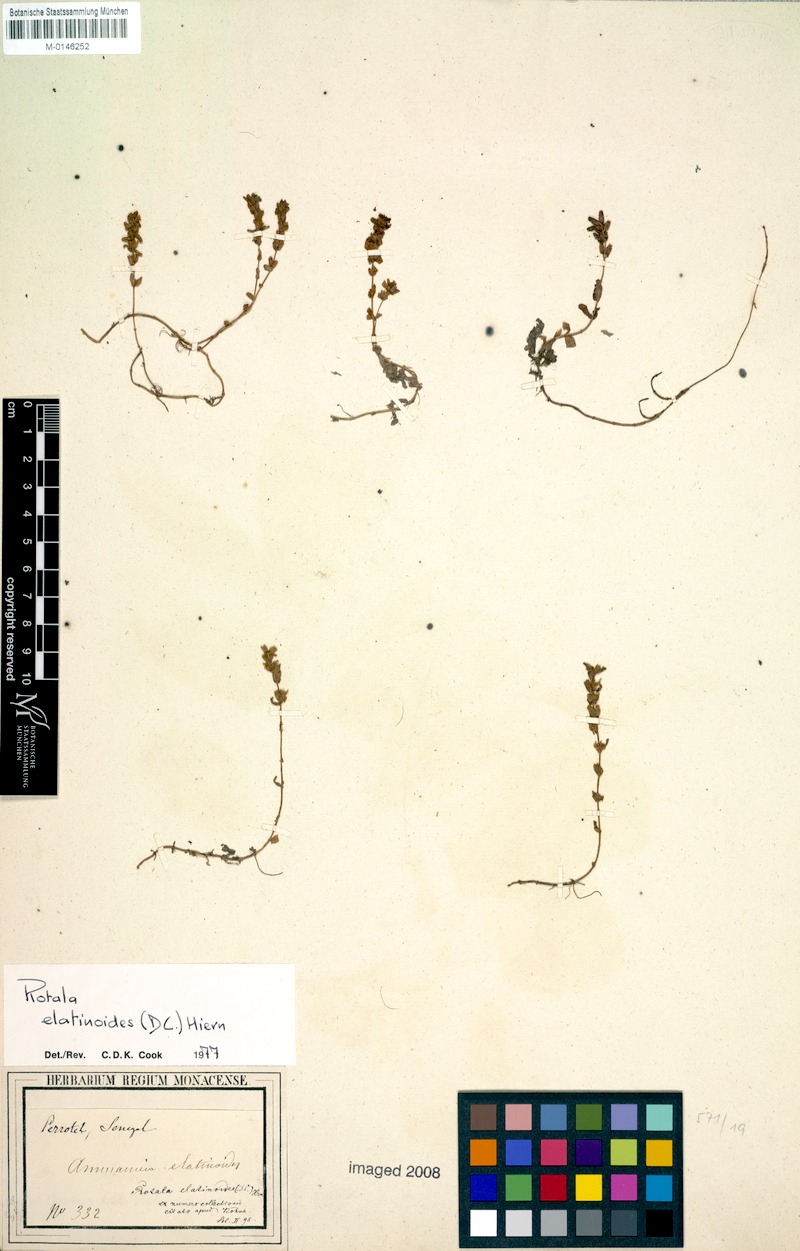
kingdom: Plantae
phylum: Tracheophyta
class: Magnoliopsida
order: Myrtales
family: Lythraceae
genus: Rotala
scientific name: Rotala elatinoides
